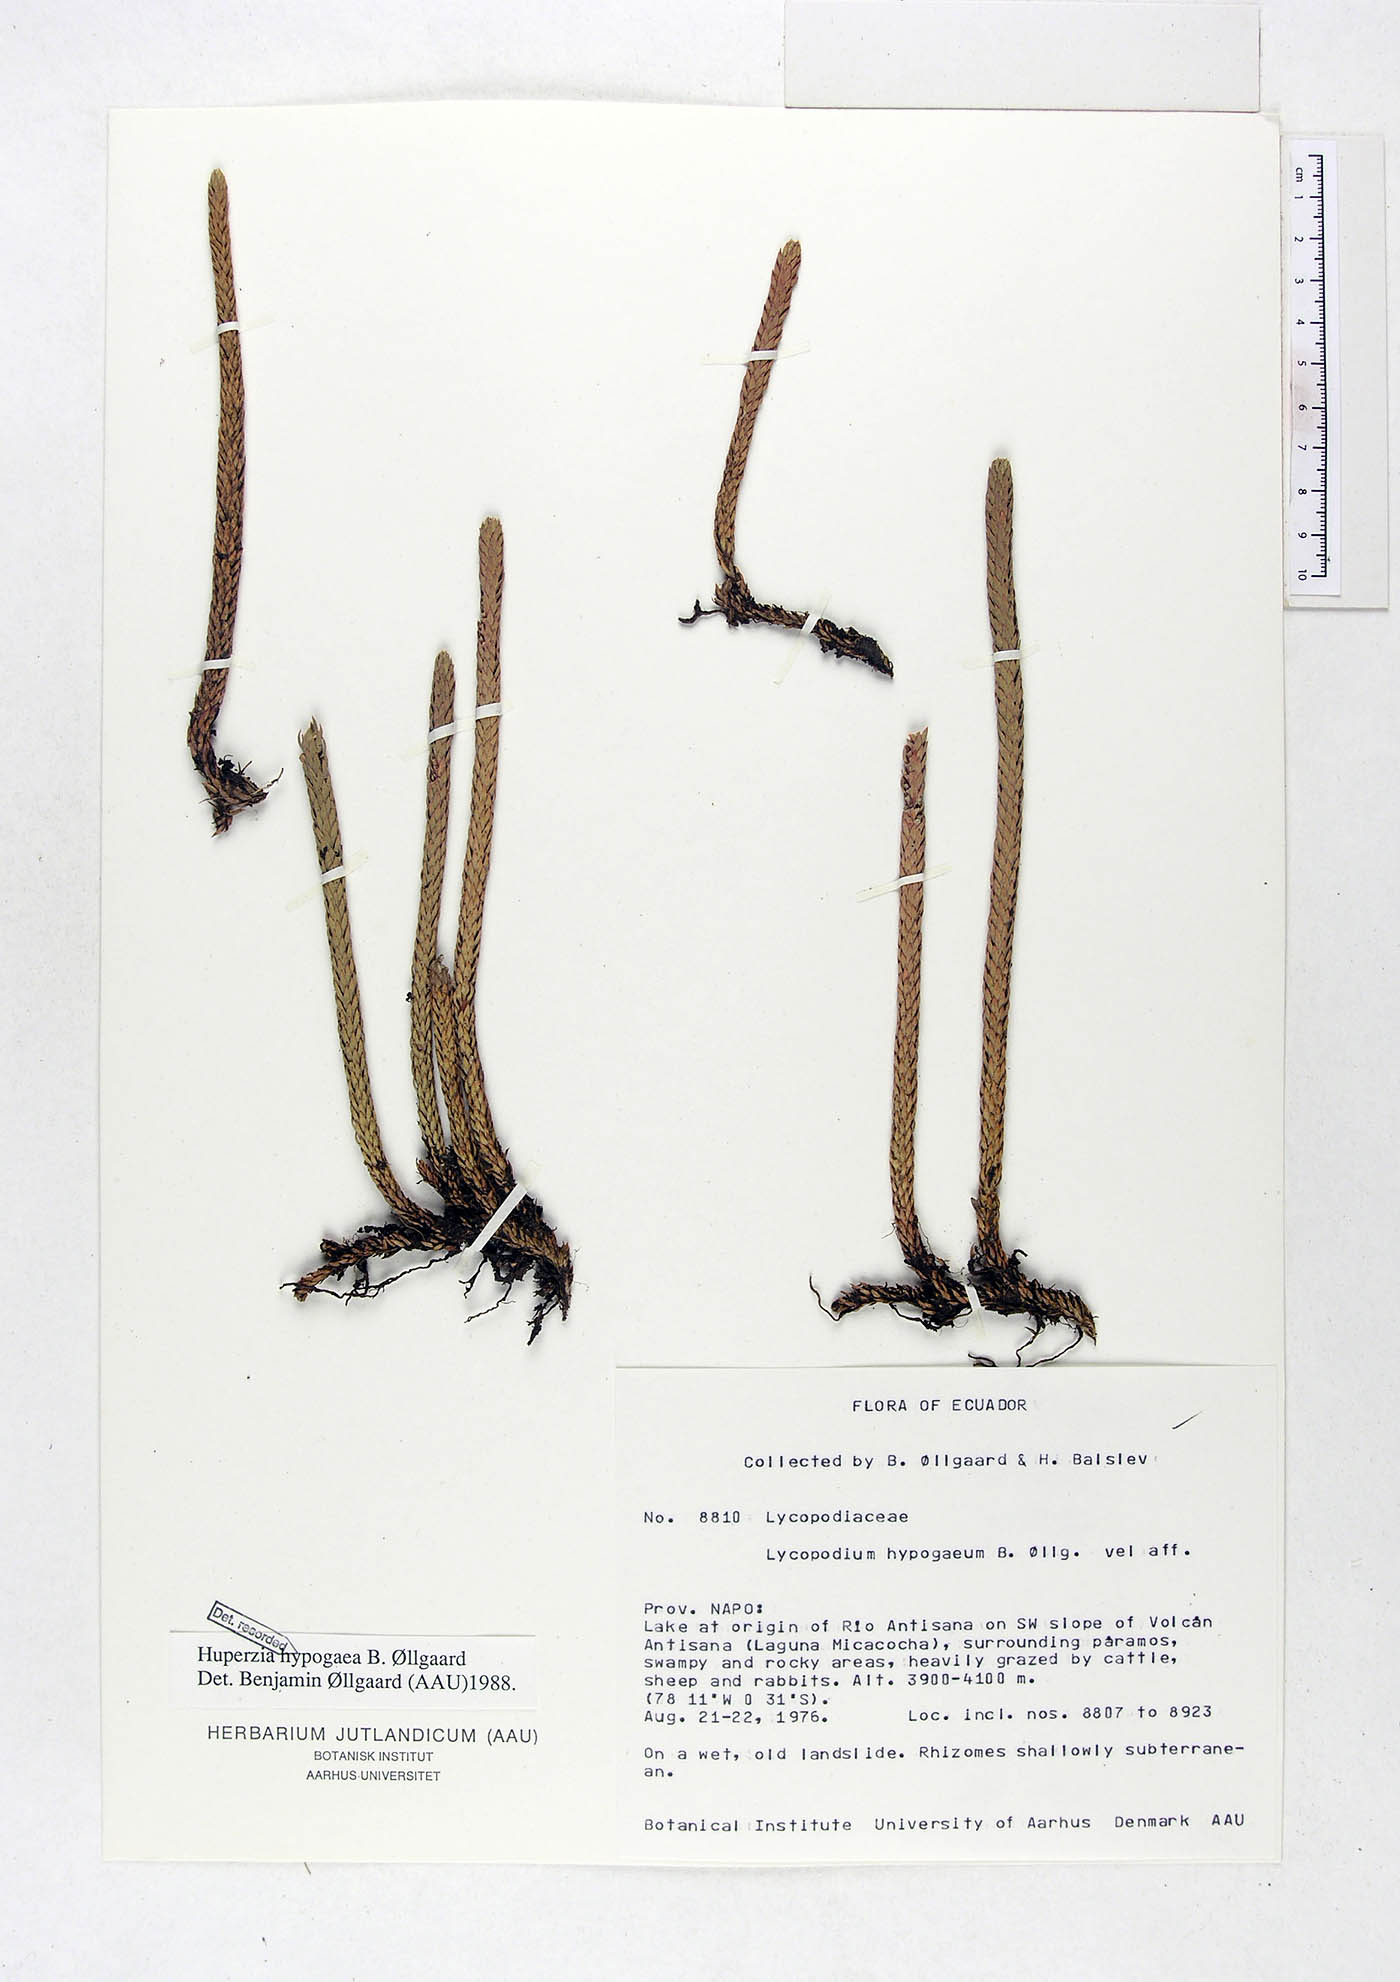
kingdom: Plantae
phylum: Tracheophyta
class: Lycopodiopsida
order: Lycopodiales
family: Lycopodiaceae
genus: Phlegmariurus
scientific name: Phlegmariurus hypogaeus
